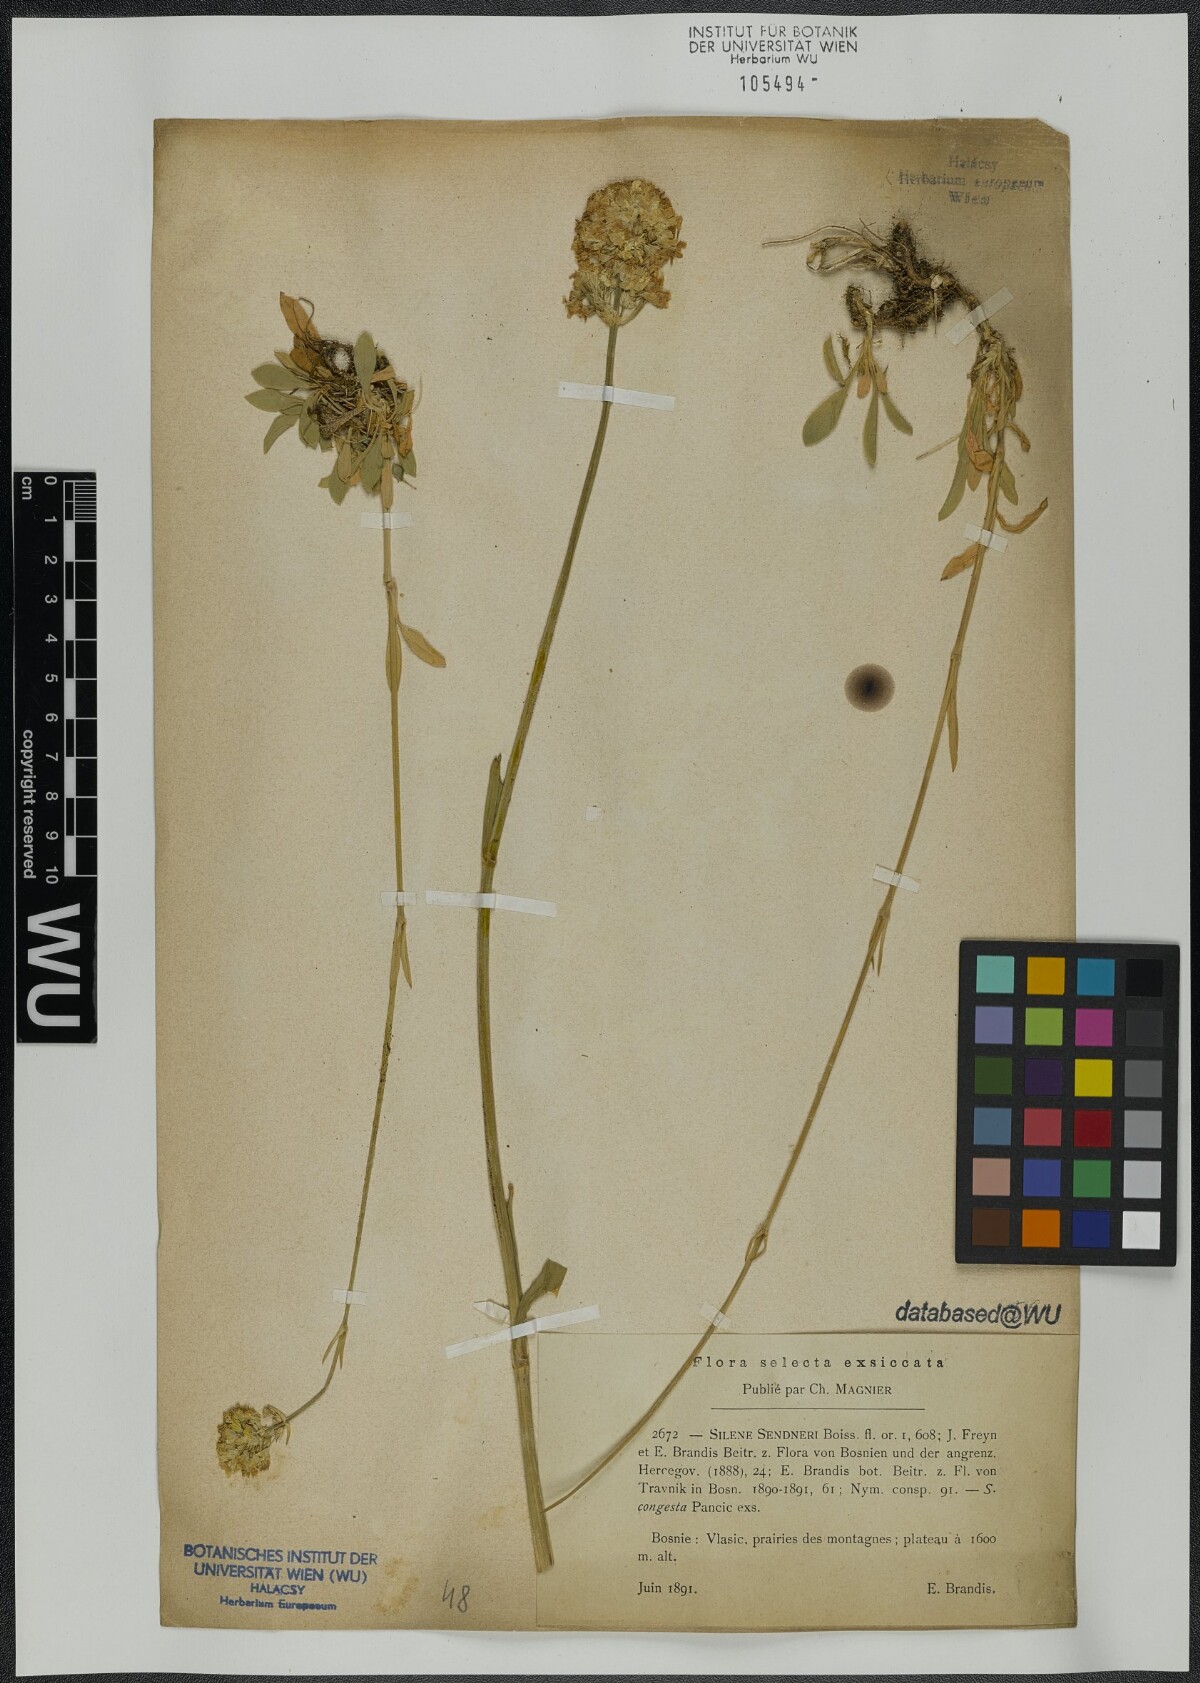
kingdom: Plantae
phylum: Tracheophyta
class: Magnoliopsida
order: Caryophyllales
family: Caryophyllaceae
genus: Silene
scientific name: Silene sendtneri
